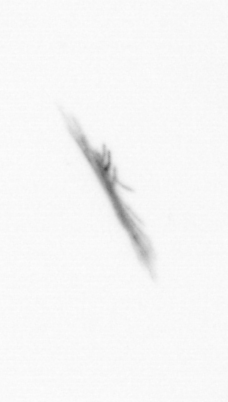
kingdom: Bacteria
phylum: Cyanobacteria
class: Cyanobacteriia
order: Cyanobacteriales
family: Microcoleaceae
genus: Trichodesmium
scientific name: Trichodesmium
